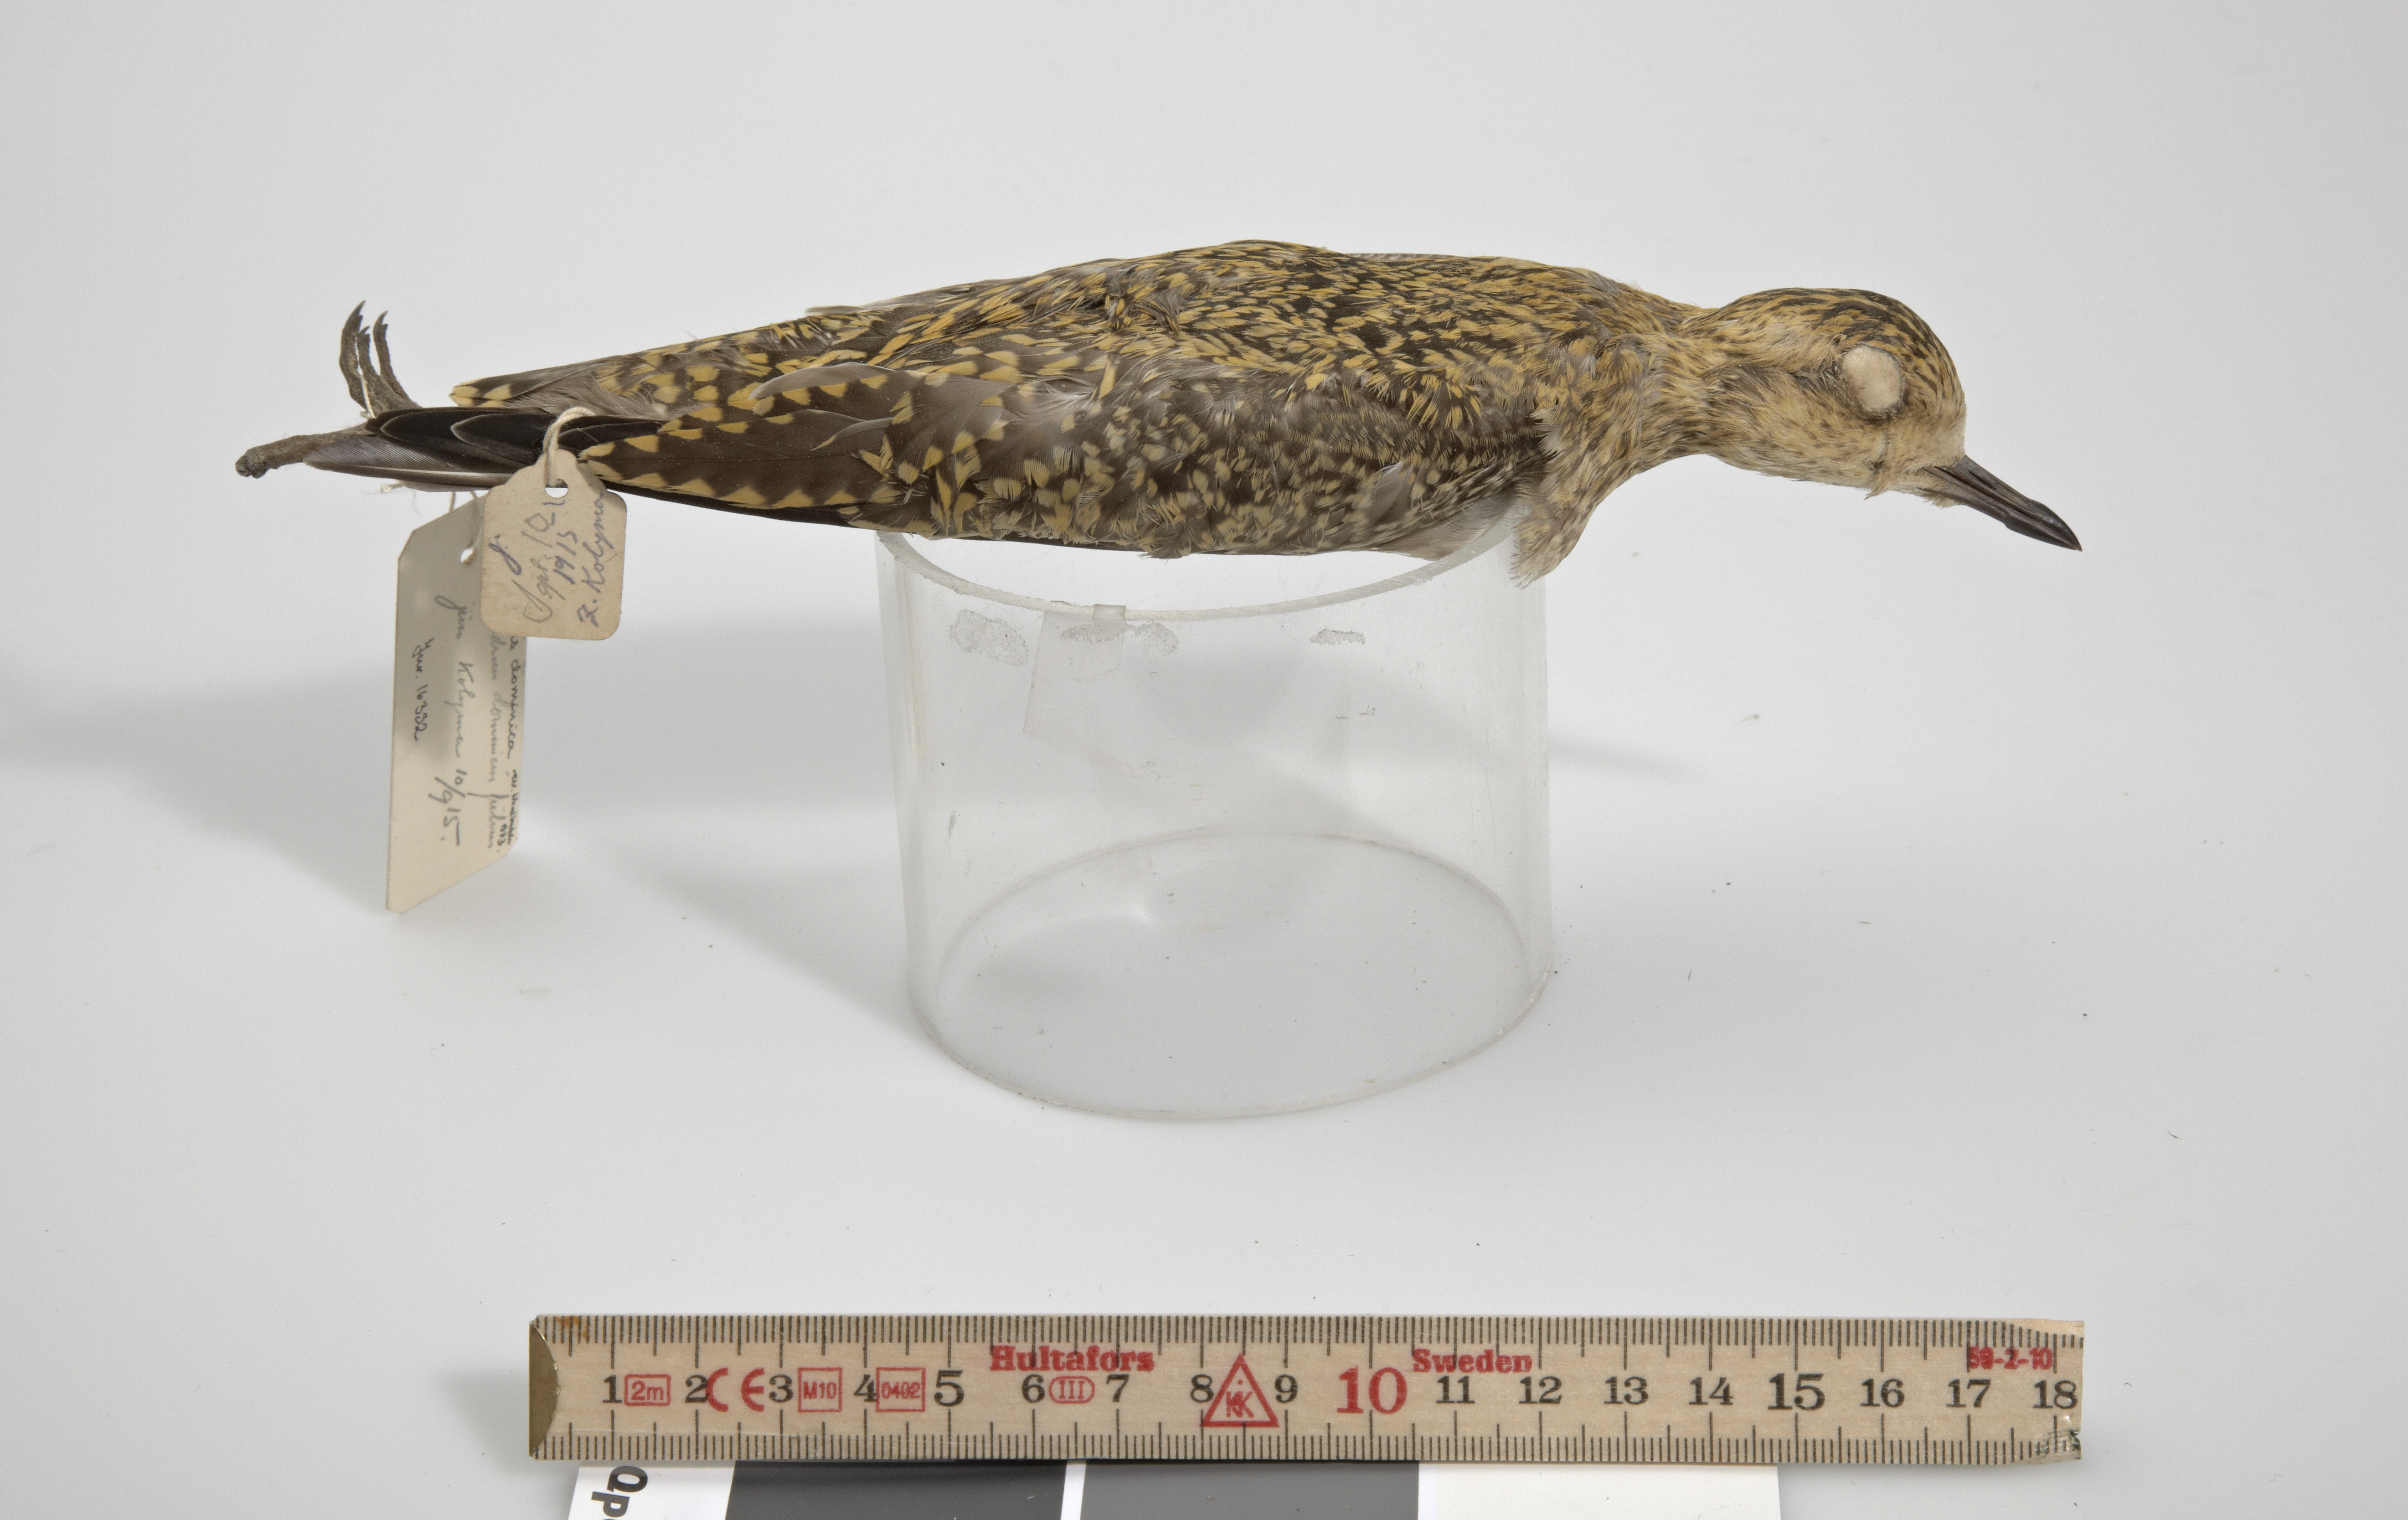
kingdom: Animalia
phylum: Chordata
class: Aves
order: Charadriiformes
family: Charadriidae
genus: Pluvialis
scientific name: Pluvialis fulva
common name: Pacific golden plover
